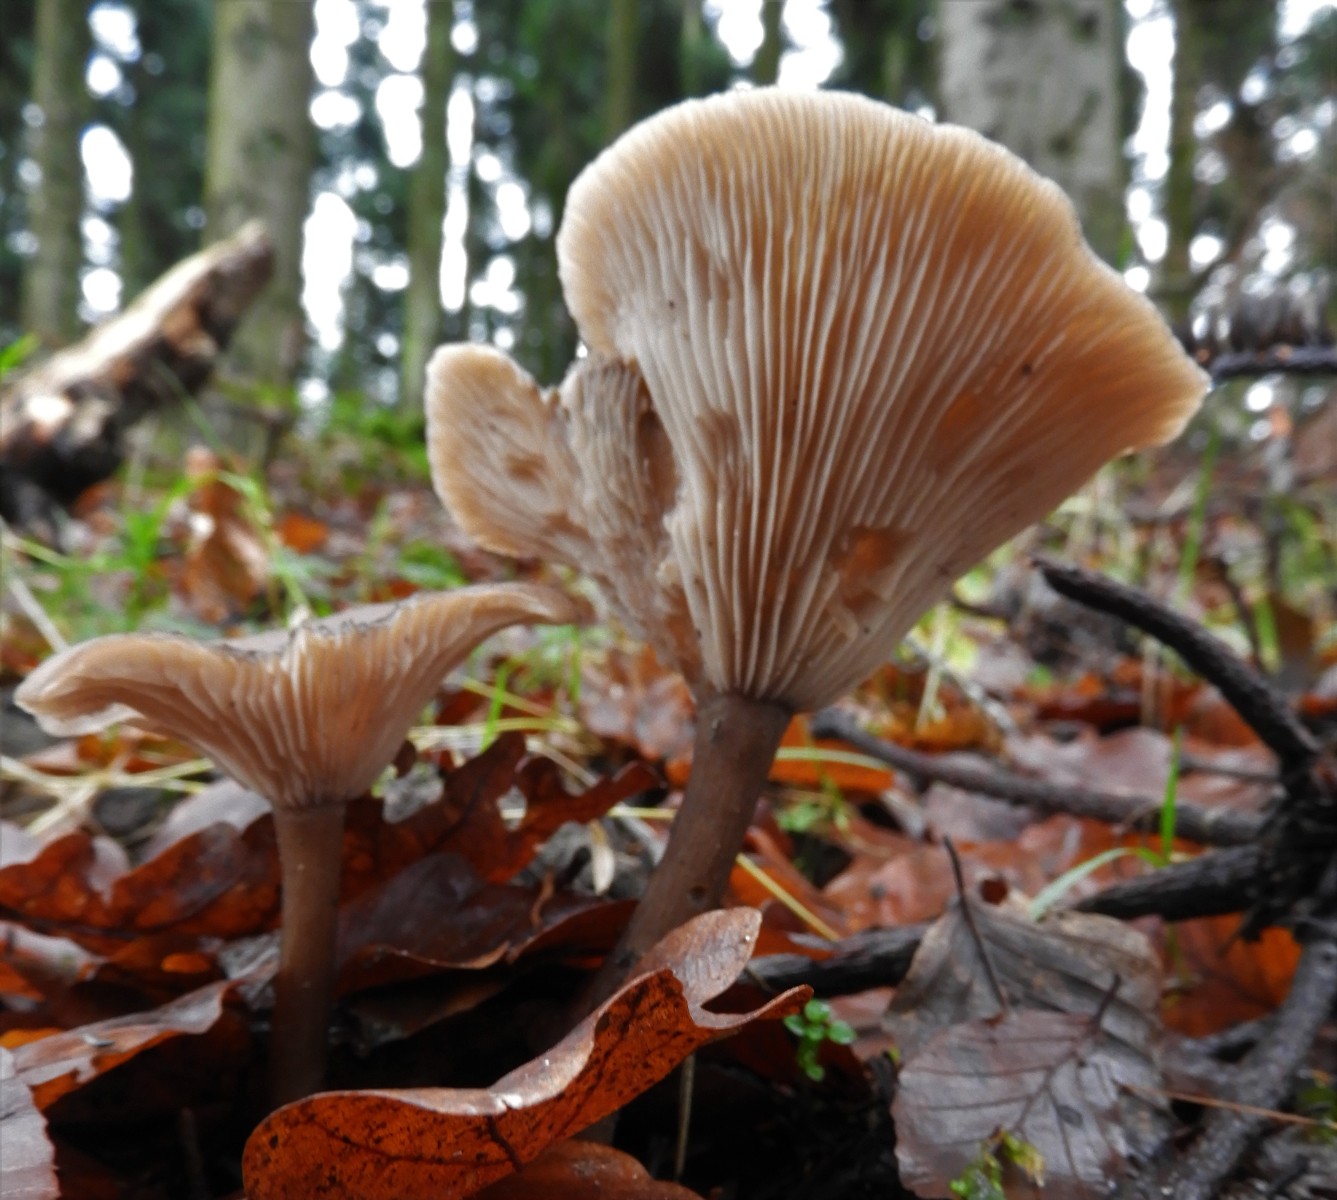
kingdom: Fungi
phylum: Basidiomycota
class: Agaricomycetes
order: Agaricales
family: Pseudoclitocybaceae
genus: Pseudoclitocybe
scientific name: Pseudoclitocybe cyathiformis
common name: almindelig bægertragthat
